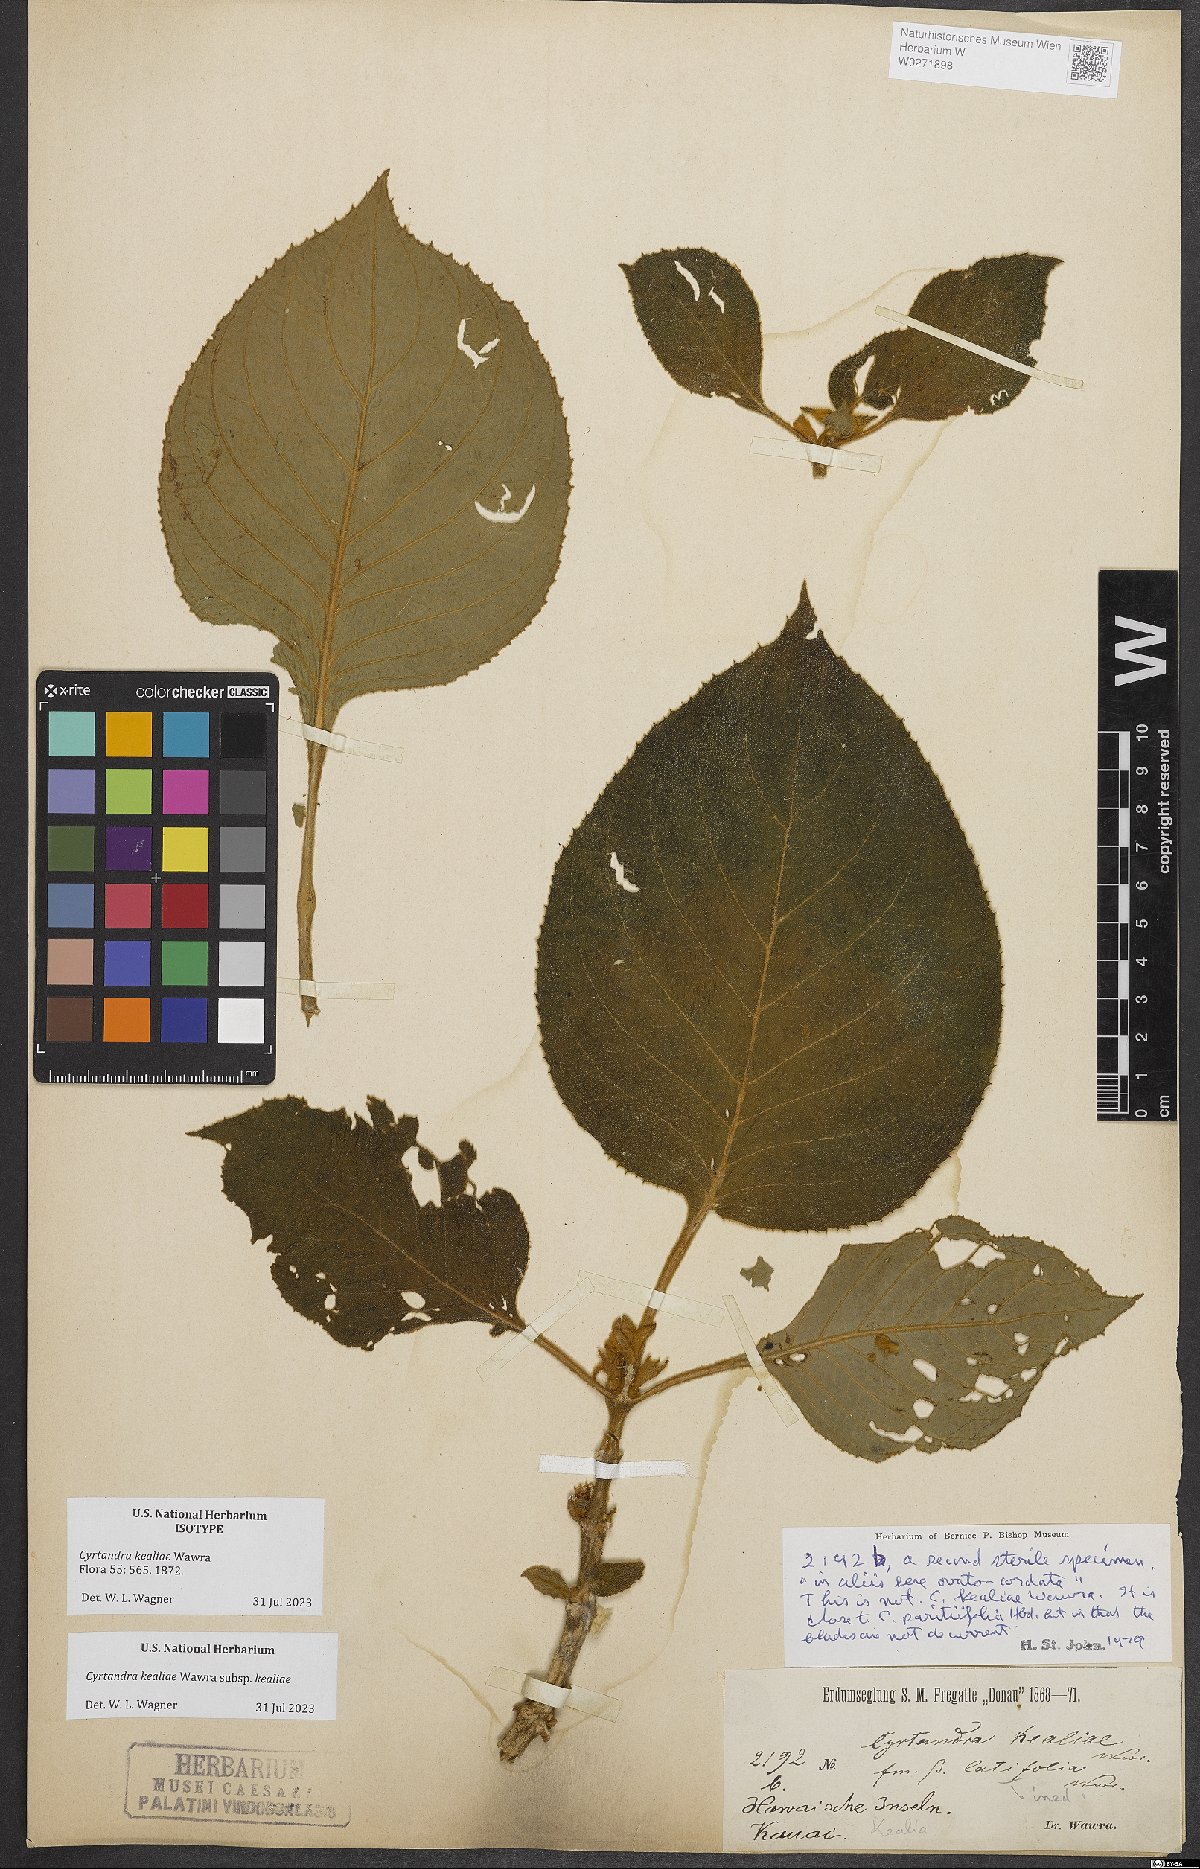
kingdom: Plantae
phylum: Tracheophyta
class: Magnoliopsida
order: Lamiales
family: Gesneriaceae
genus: Cyrtandra
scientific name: Cyrtandra kealiae
